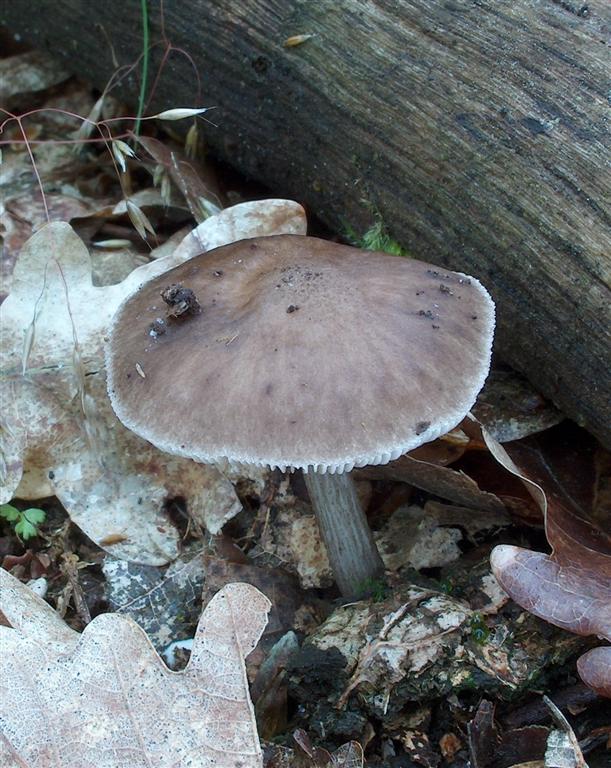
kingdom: Fungi
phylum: Basidiomycota
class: Agaricomycetes
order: Agaricales
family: Pluteaceae
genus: Pluteus
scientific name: Pluteus cervinus
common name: sodfarvet skærmhat
